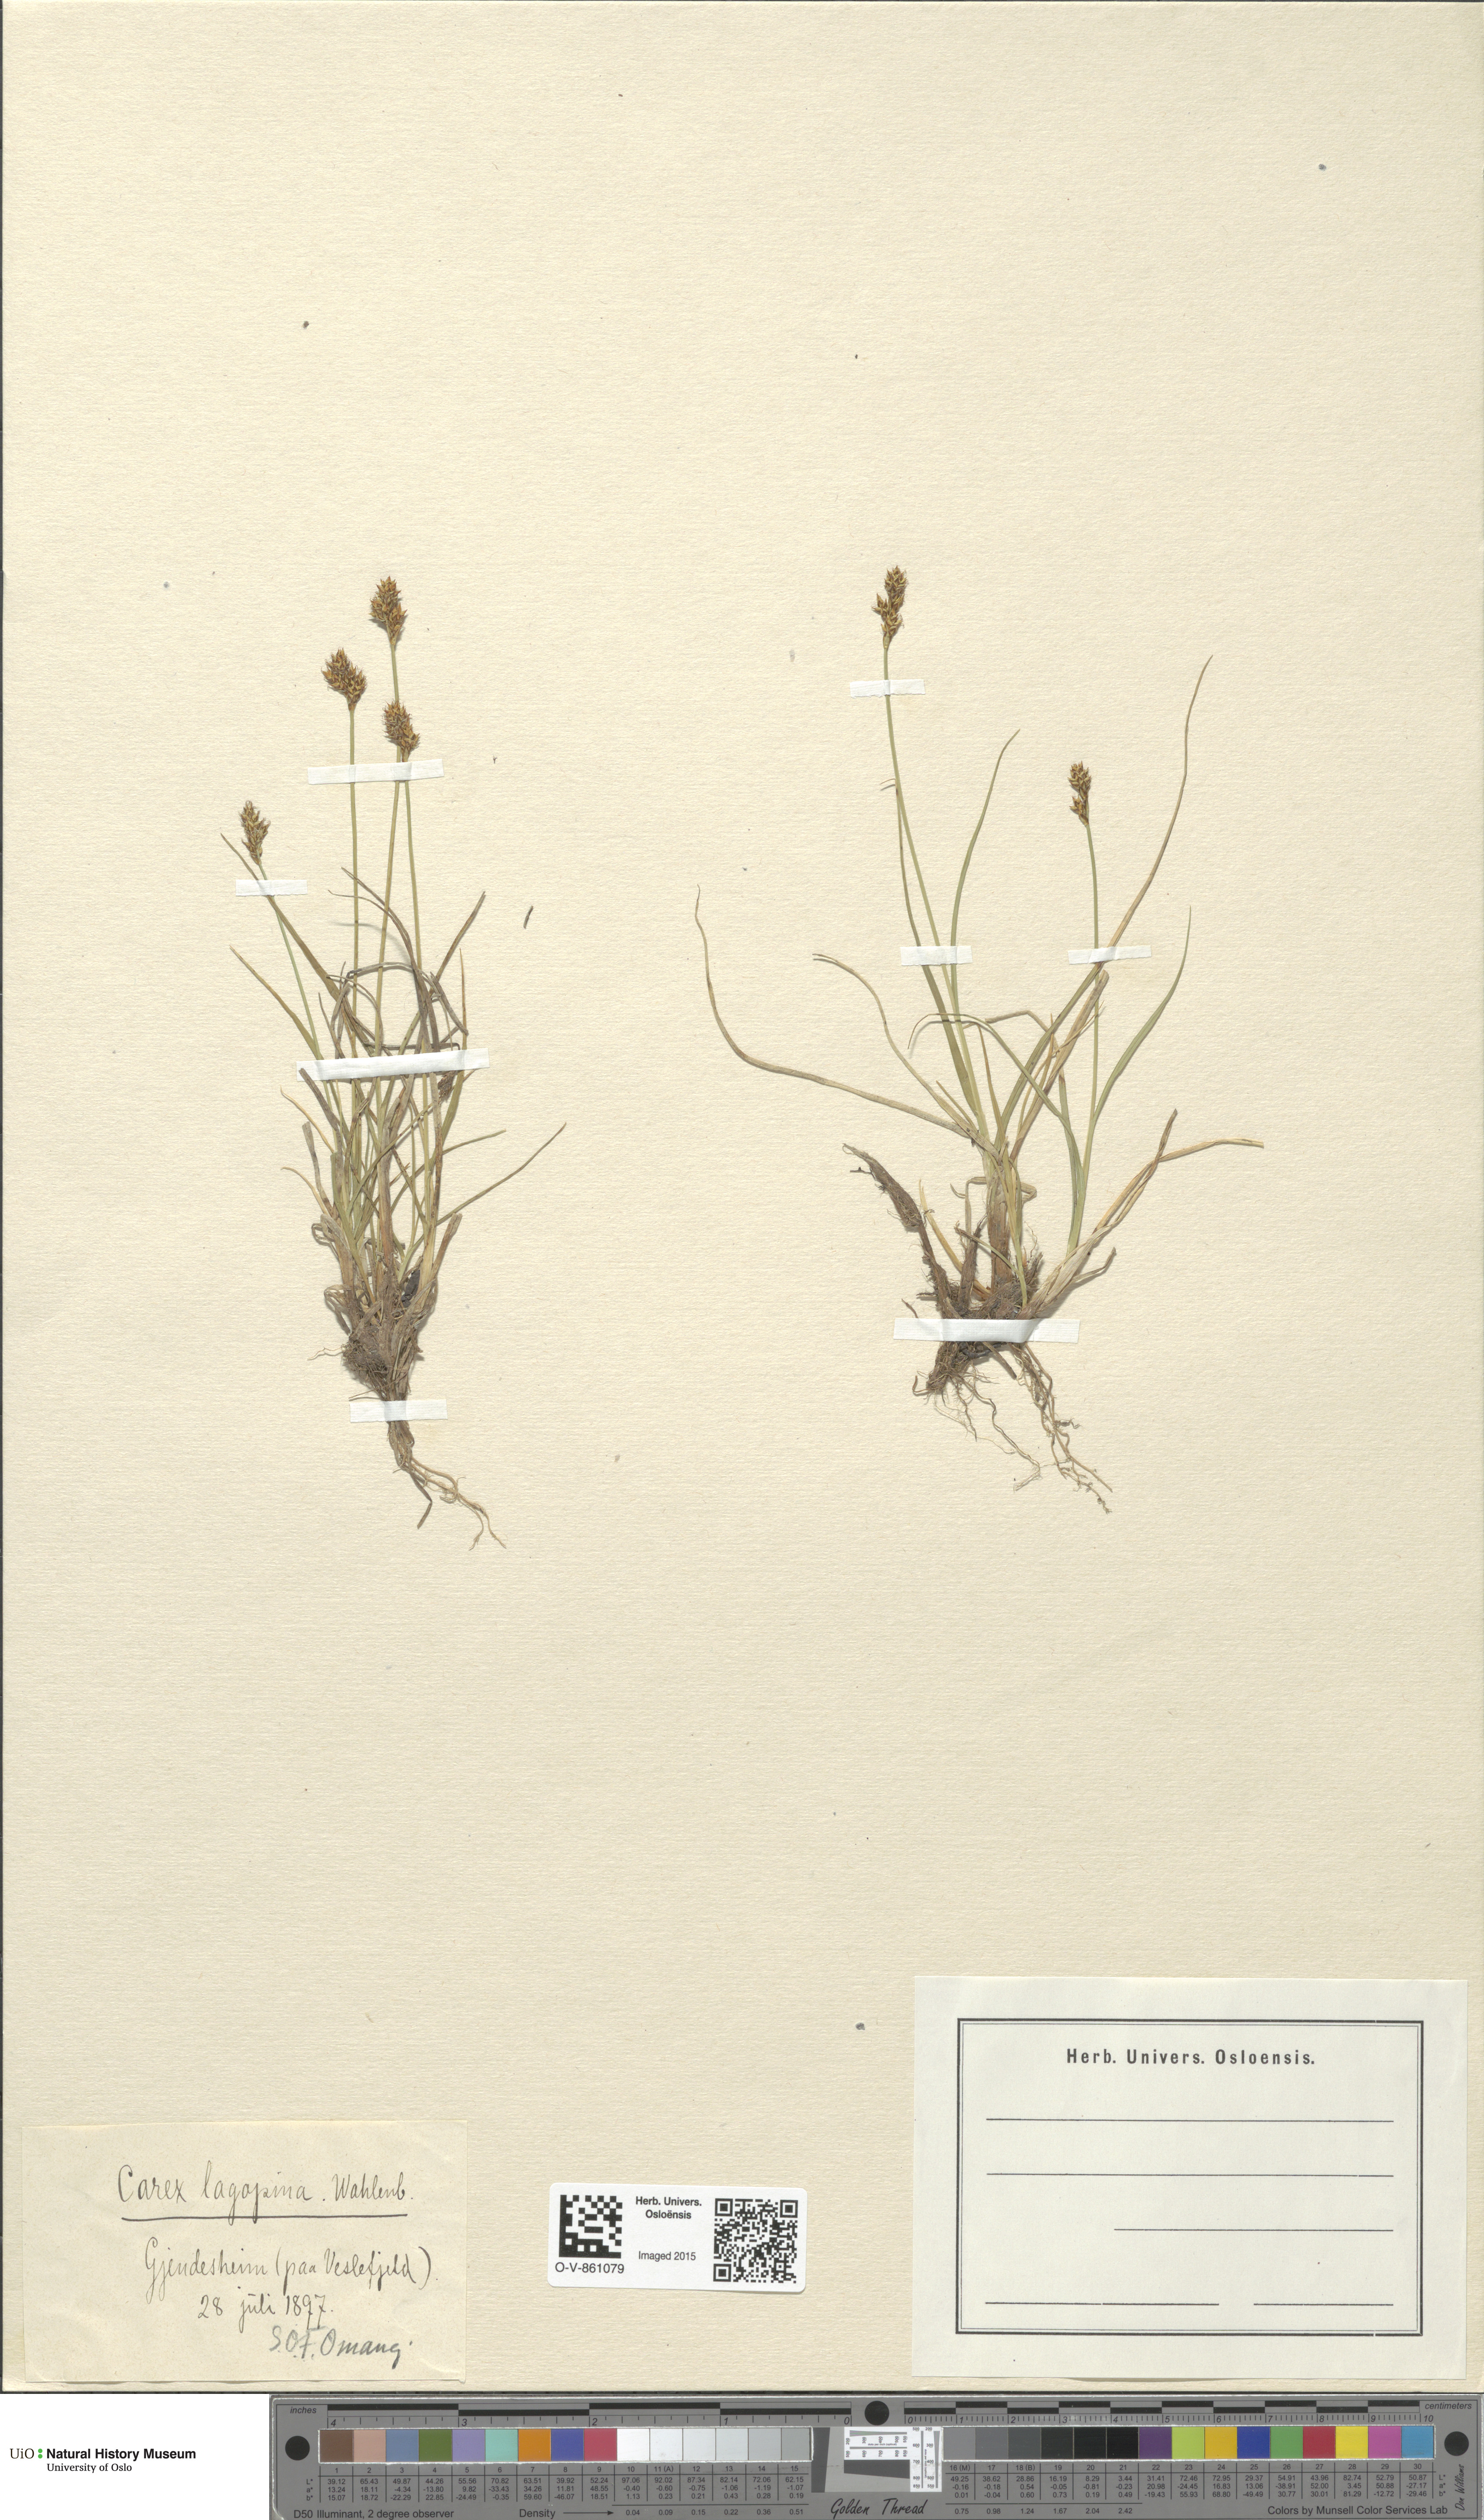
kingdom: Plantae
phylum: Tracheophyta
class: Liliopsida
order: Poales
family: Cyperaceae
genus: Carex
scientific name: Carex lachenalii
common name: Hare's-foot sedge
